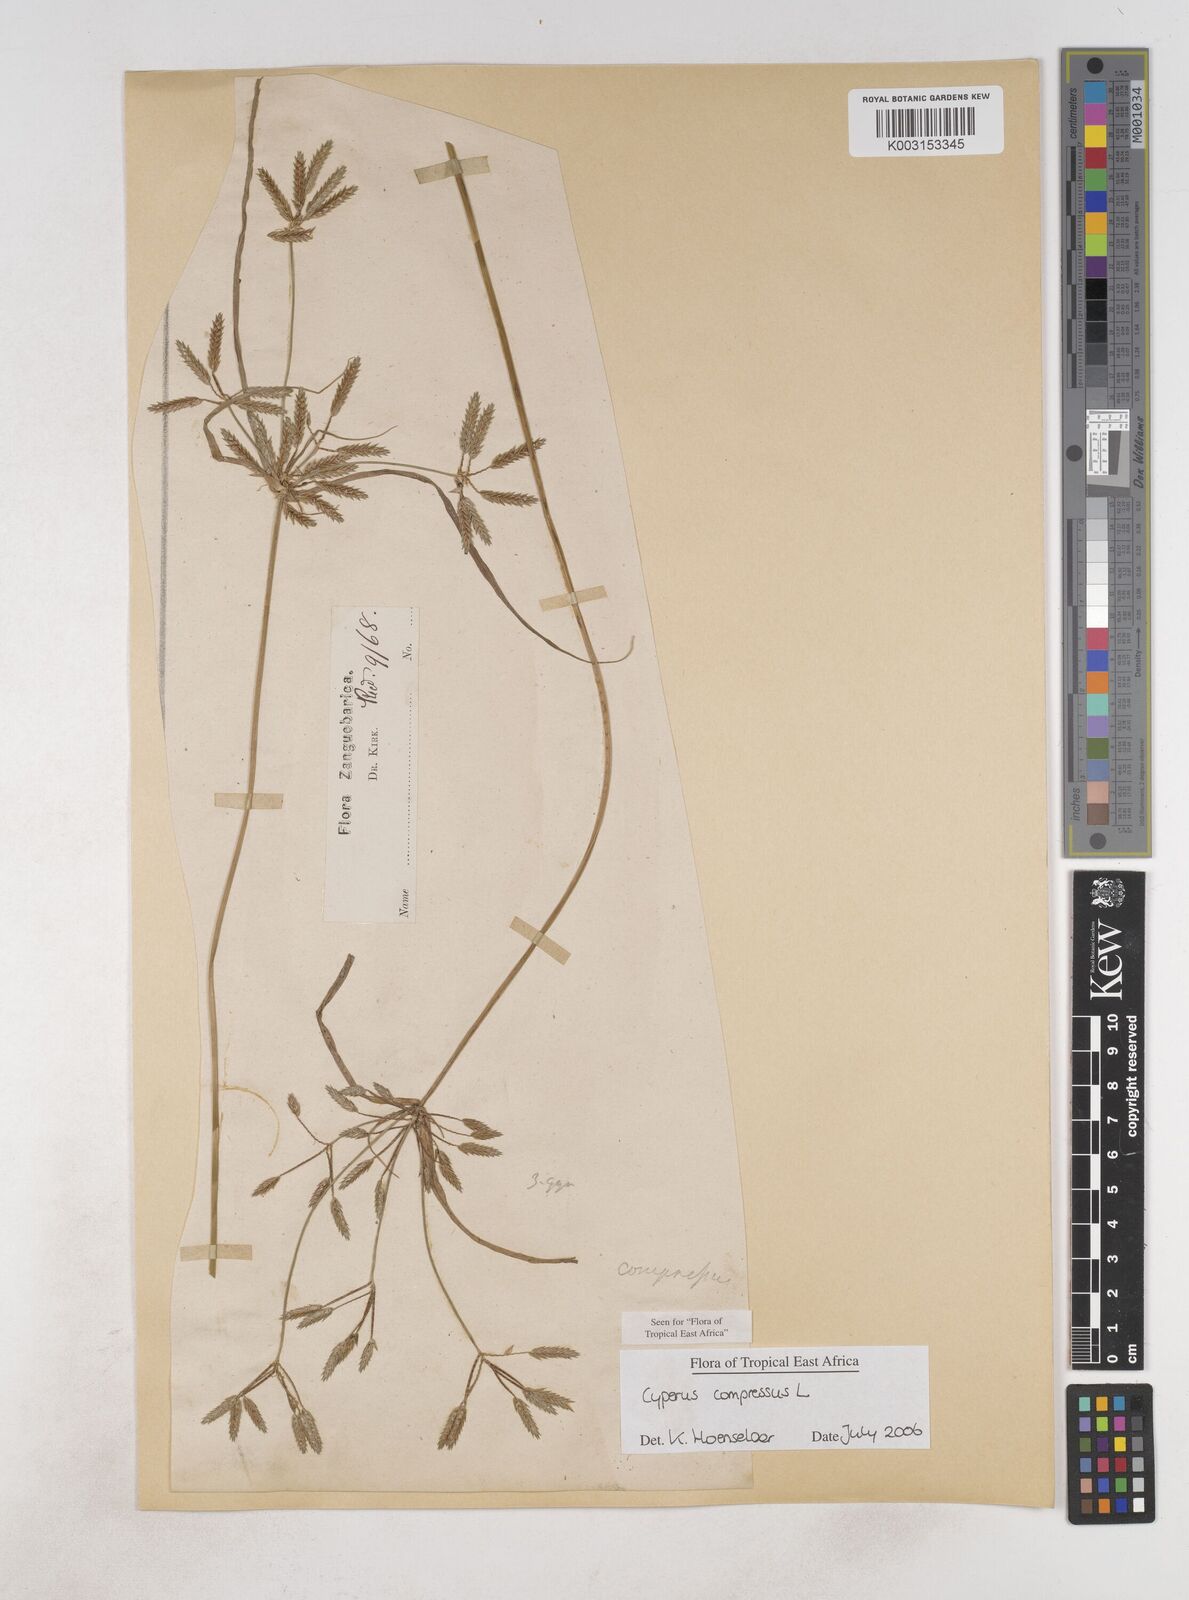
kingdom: Plantae
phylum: Tracheophyta
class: Liliopsida
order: Poales
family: Cyperaceae
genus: Cyperus
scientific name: Cyperus compressus
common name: Poorland flatsedge
